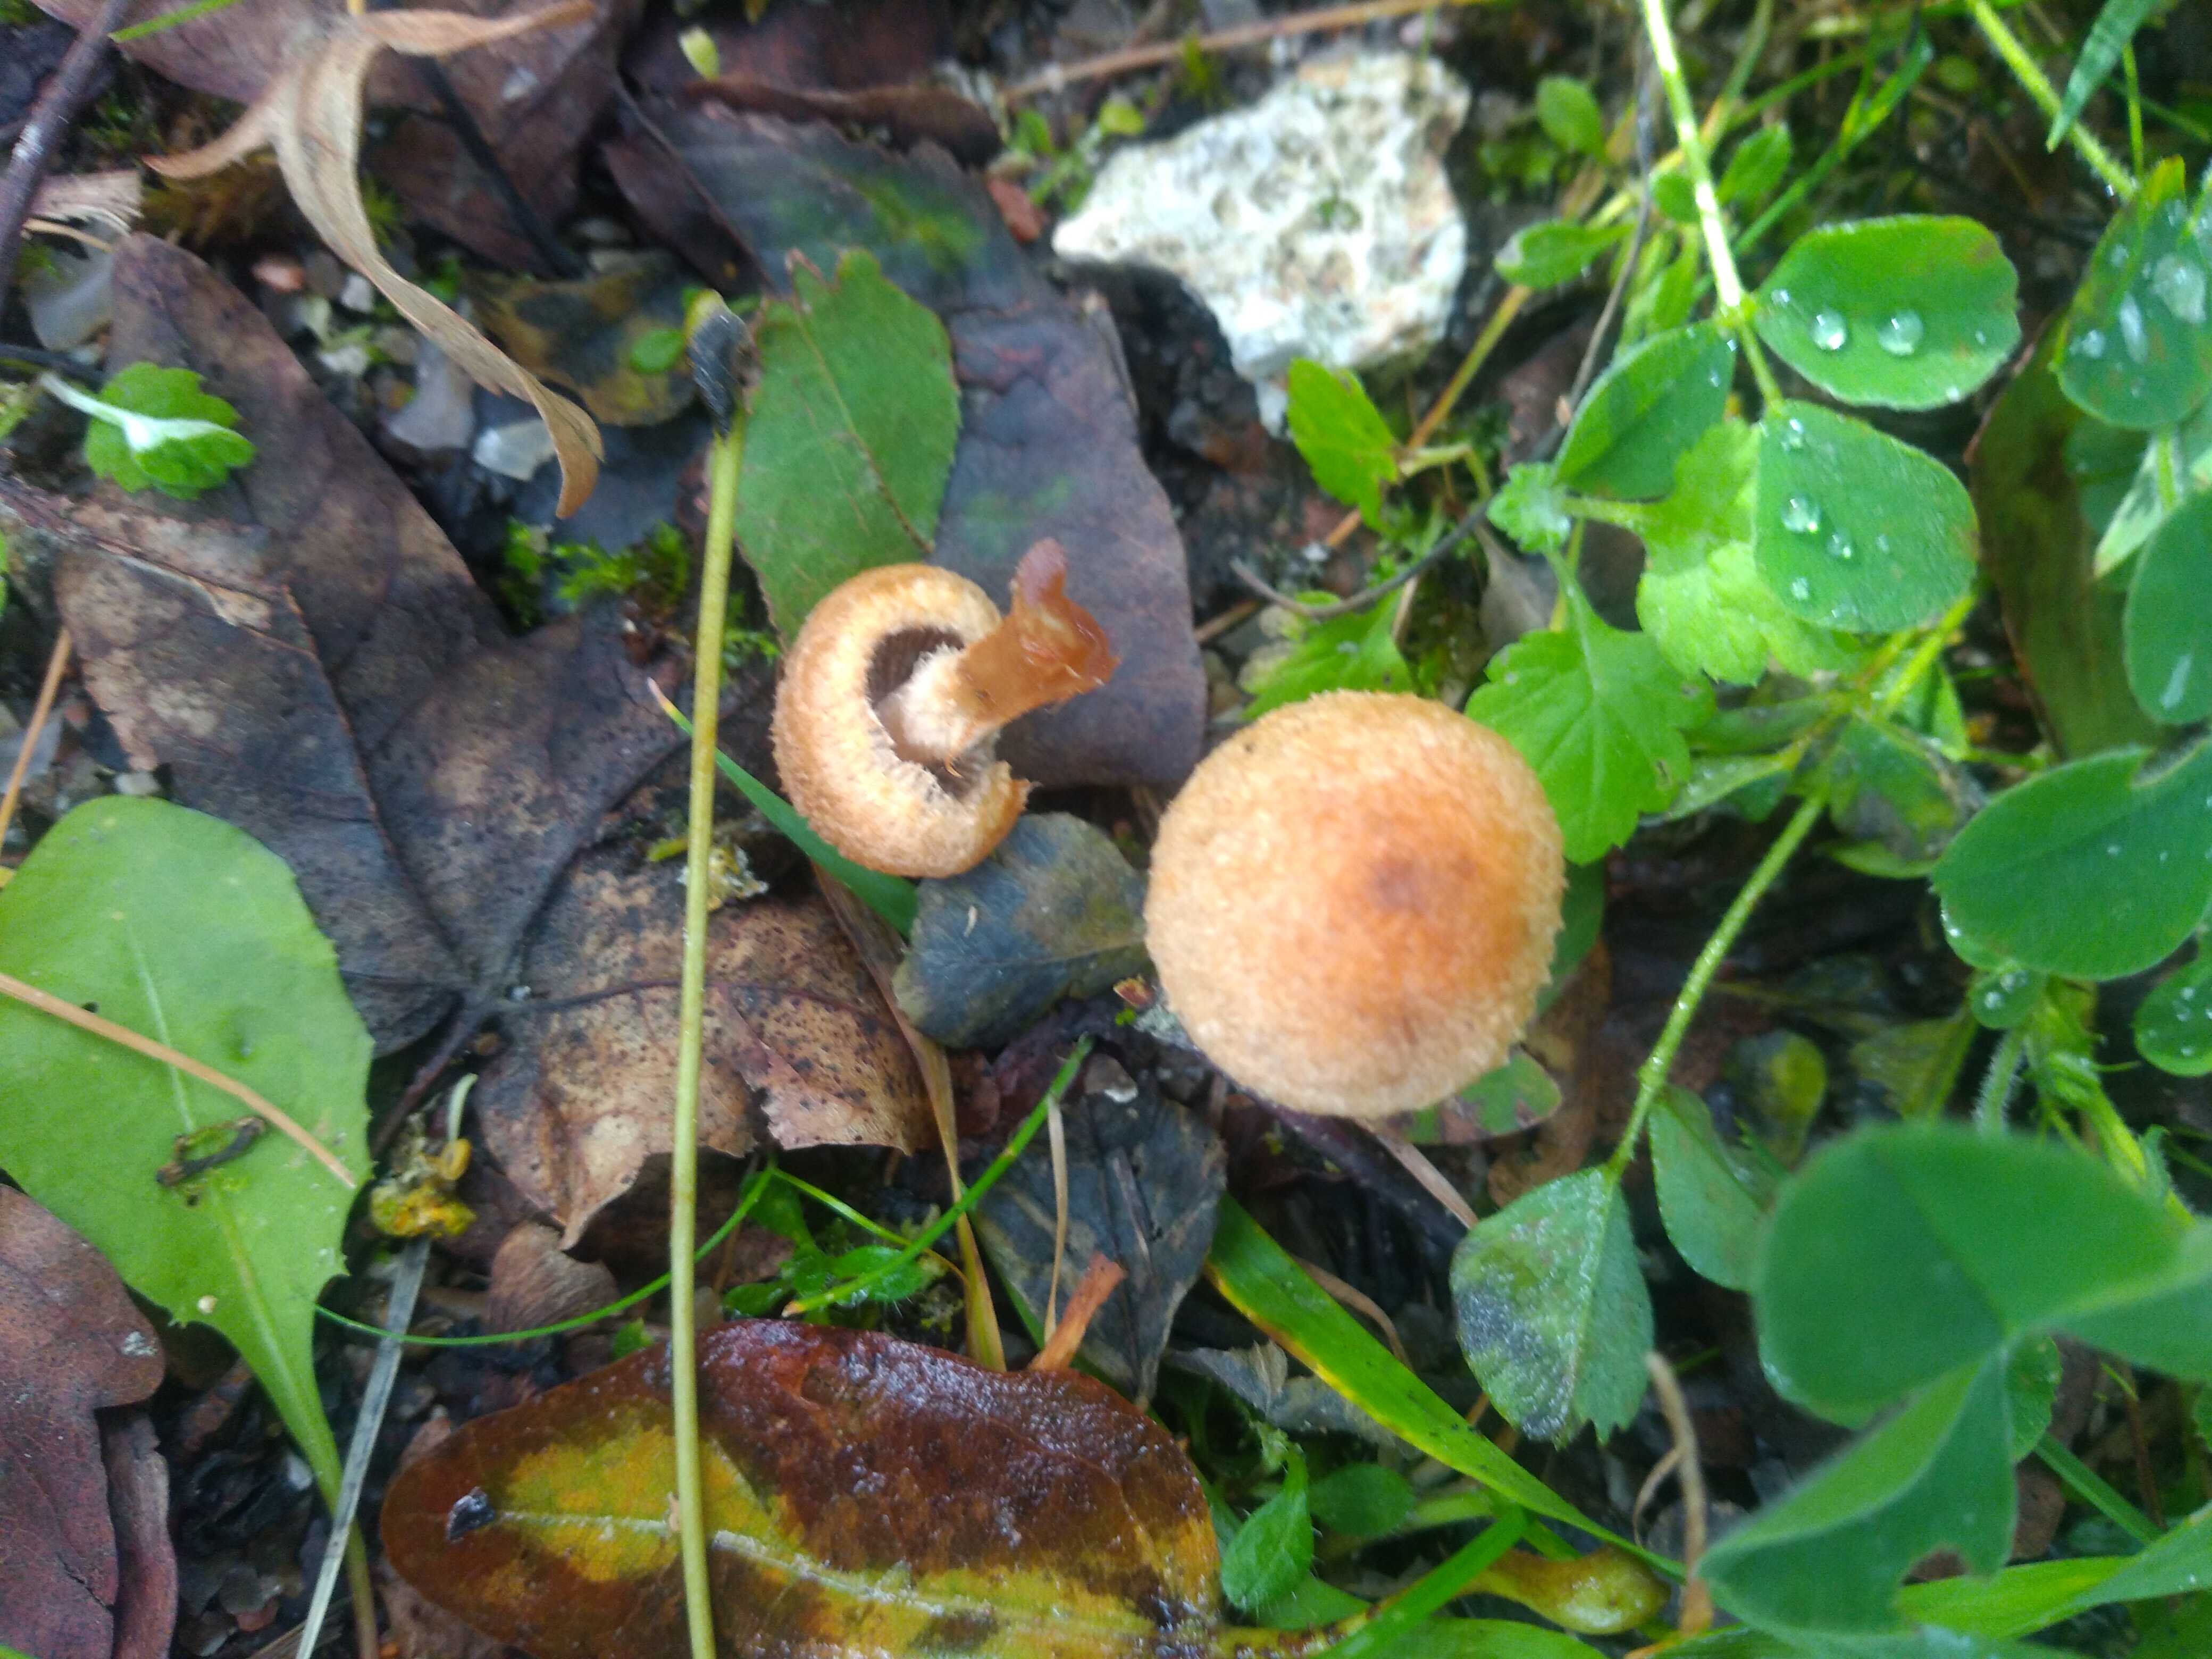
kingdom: Fungi
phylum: Basidiomycota
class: Agaricomycetes
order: Agaricales
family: Psathyrellaceae
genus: Lacrymaria
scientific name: Lacrymaria pyrotricha
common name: ildhåret mørkhat
